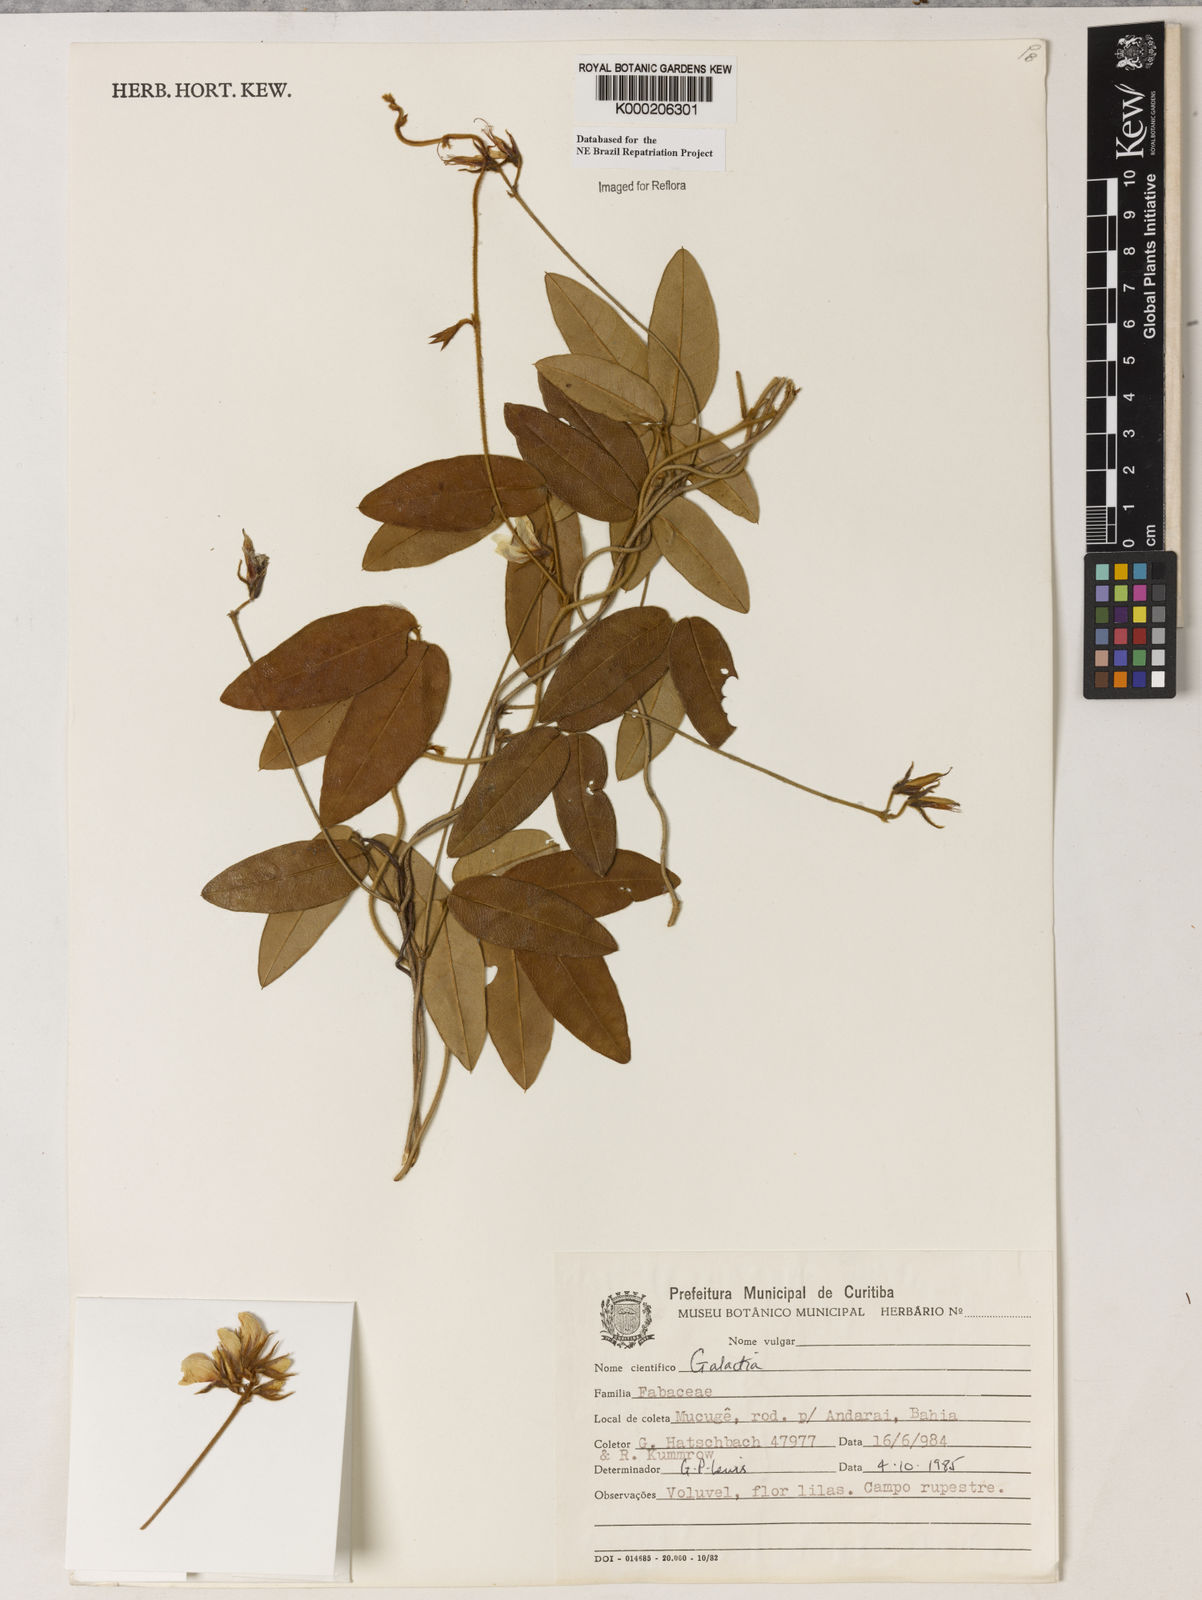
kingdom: Plantae
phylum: Tracheophyta
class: Magnoliopsida
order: Fabales
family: Fabaceae
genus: Betencourtia
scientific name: Betencourtia martii
